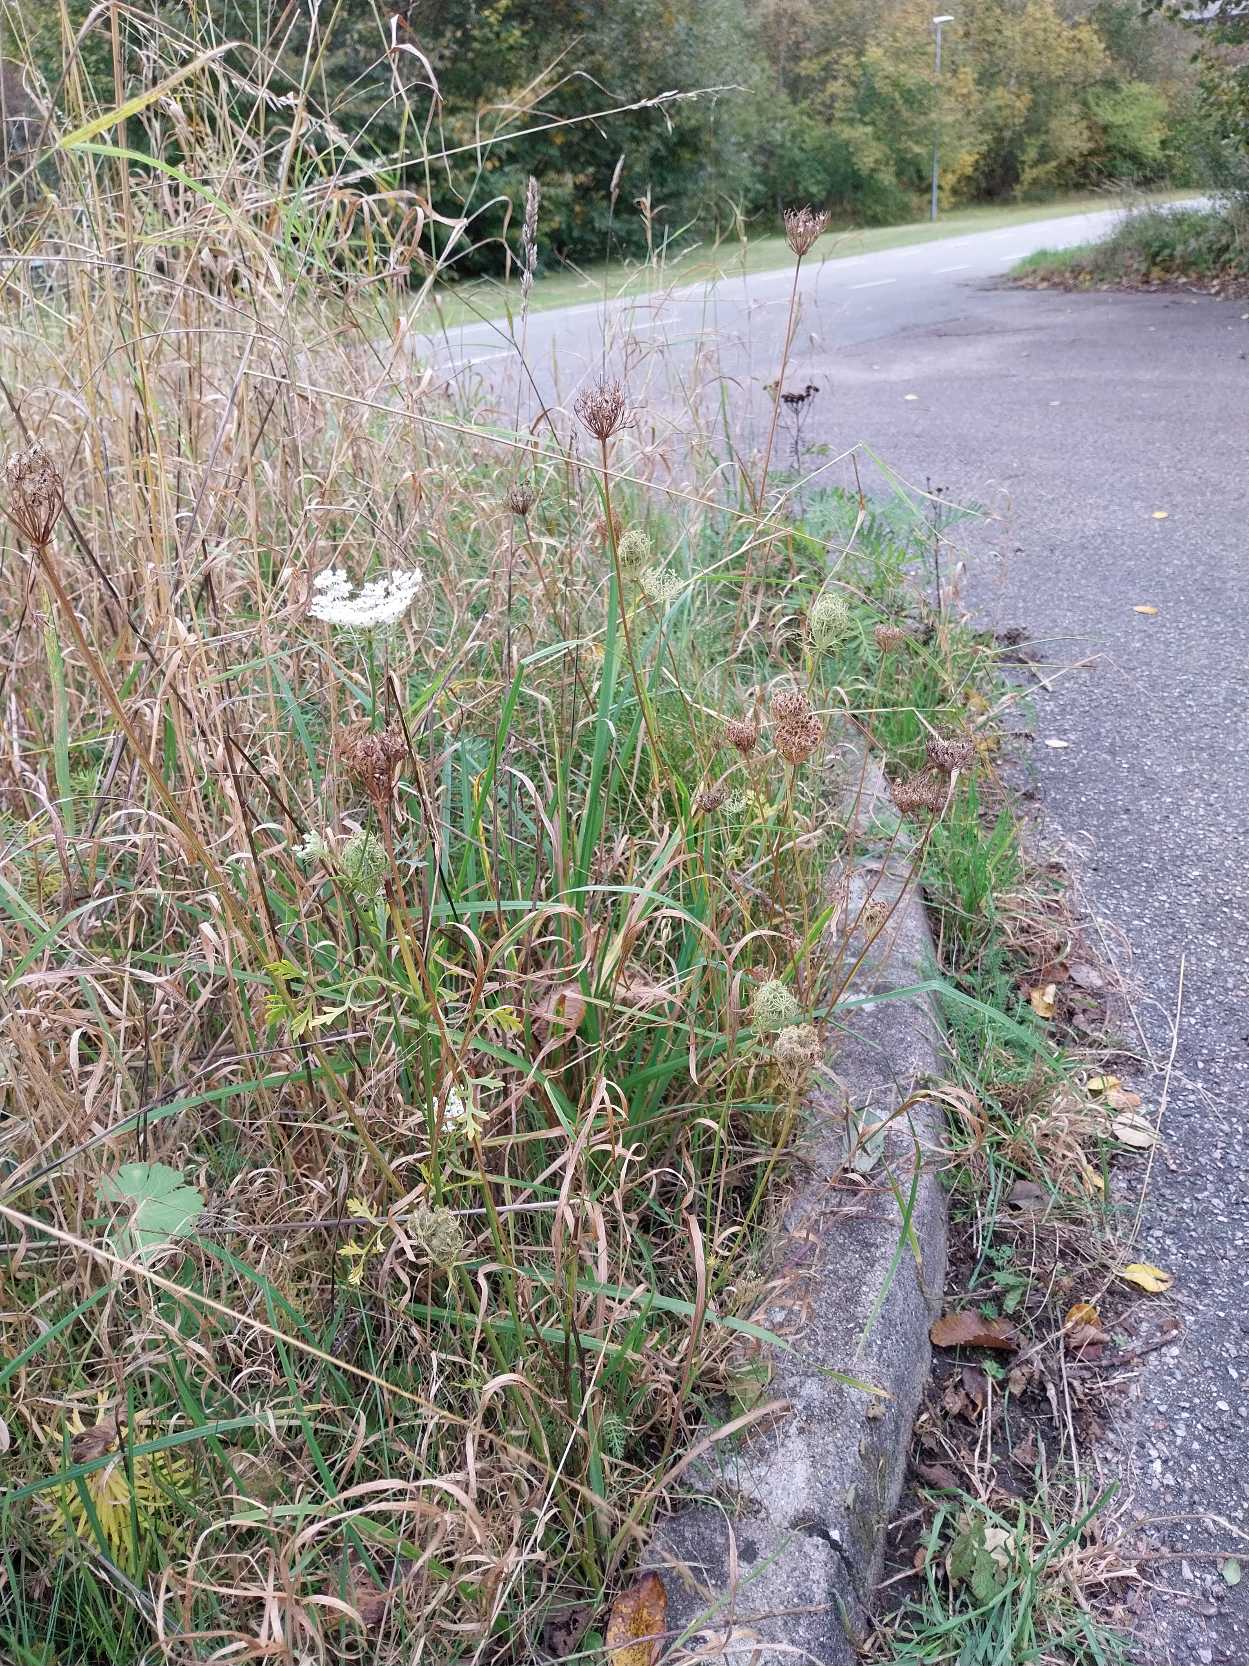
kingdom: Plantae
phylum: Tracheophyta
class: Magnoliopsida
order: Apiales
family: Apiaceae
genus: Daucus
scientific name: Daucus carota
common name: Gulerod
